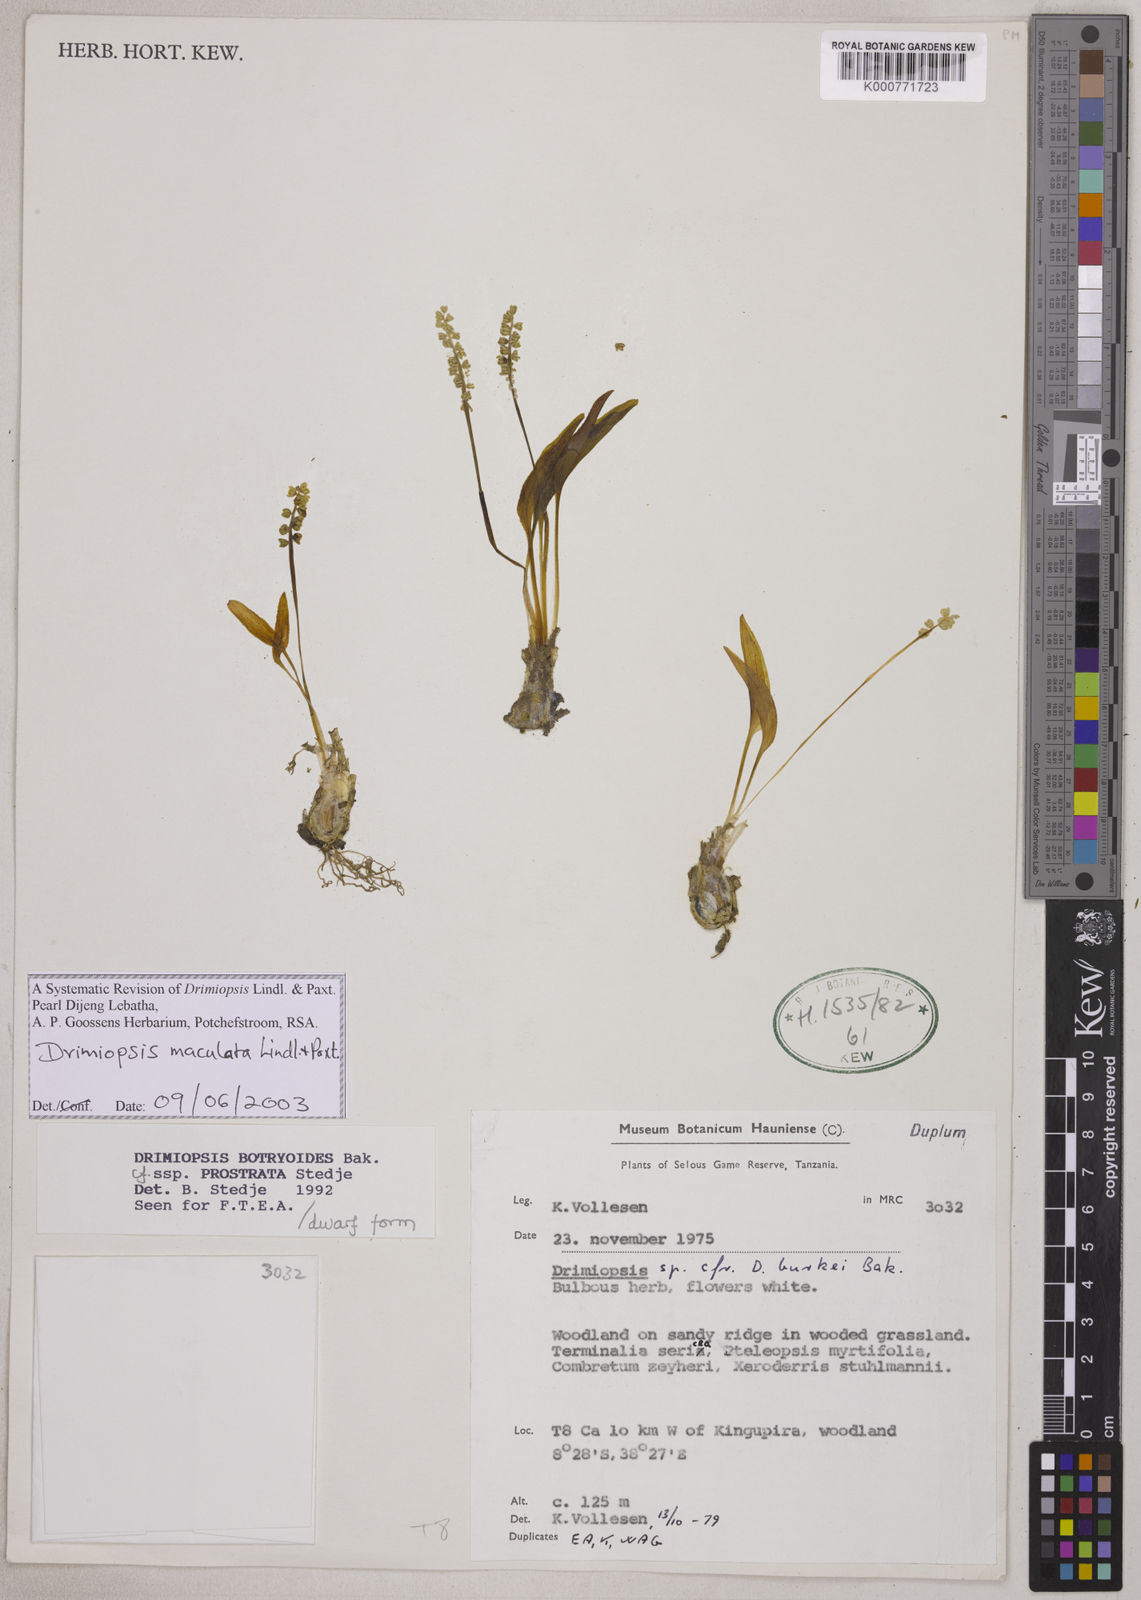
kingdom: Plantae
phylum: Tracheophyta
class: Liliopsida
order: Asparagales
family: Asparagaceae
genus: Drimiopsis
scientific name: Drimiopsis maculata
